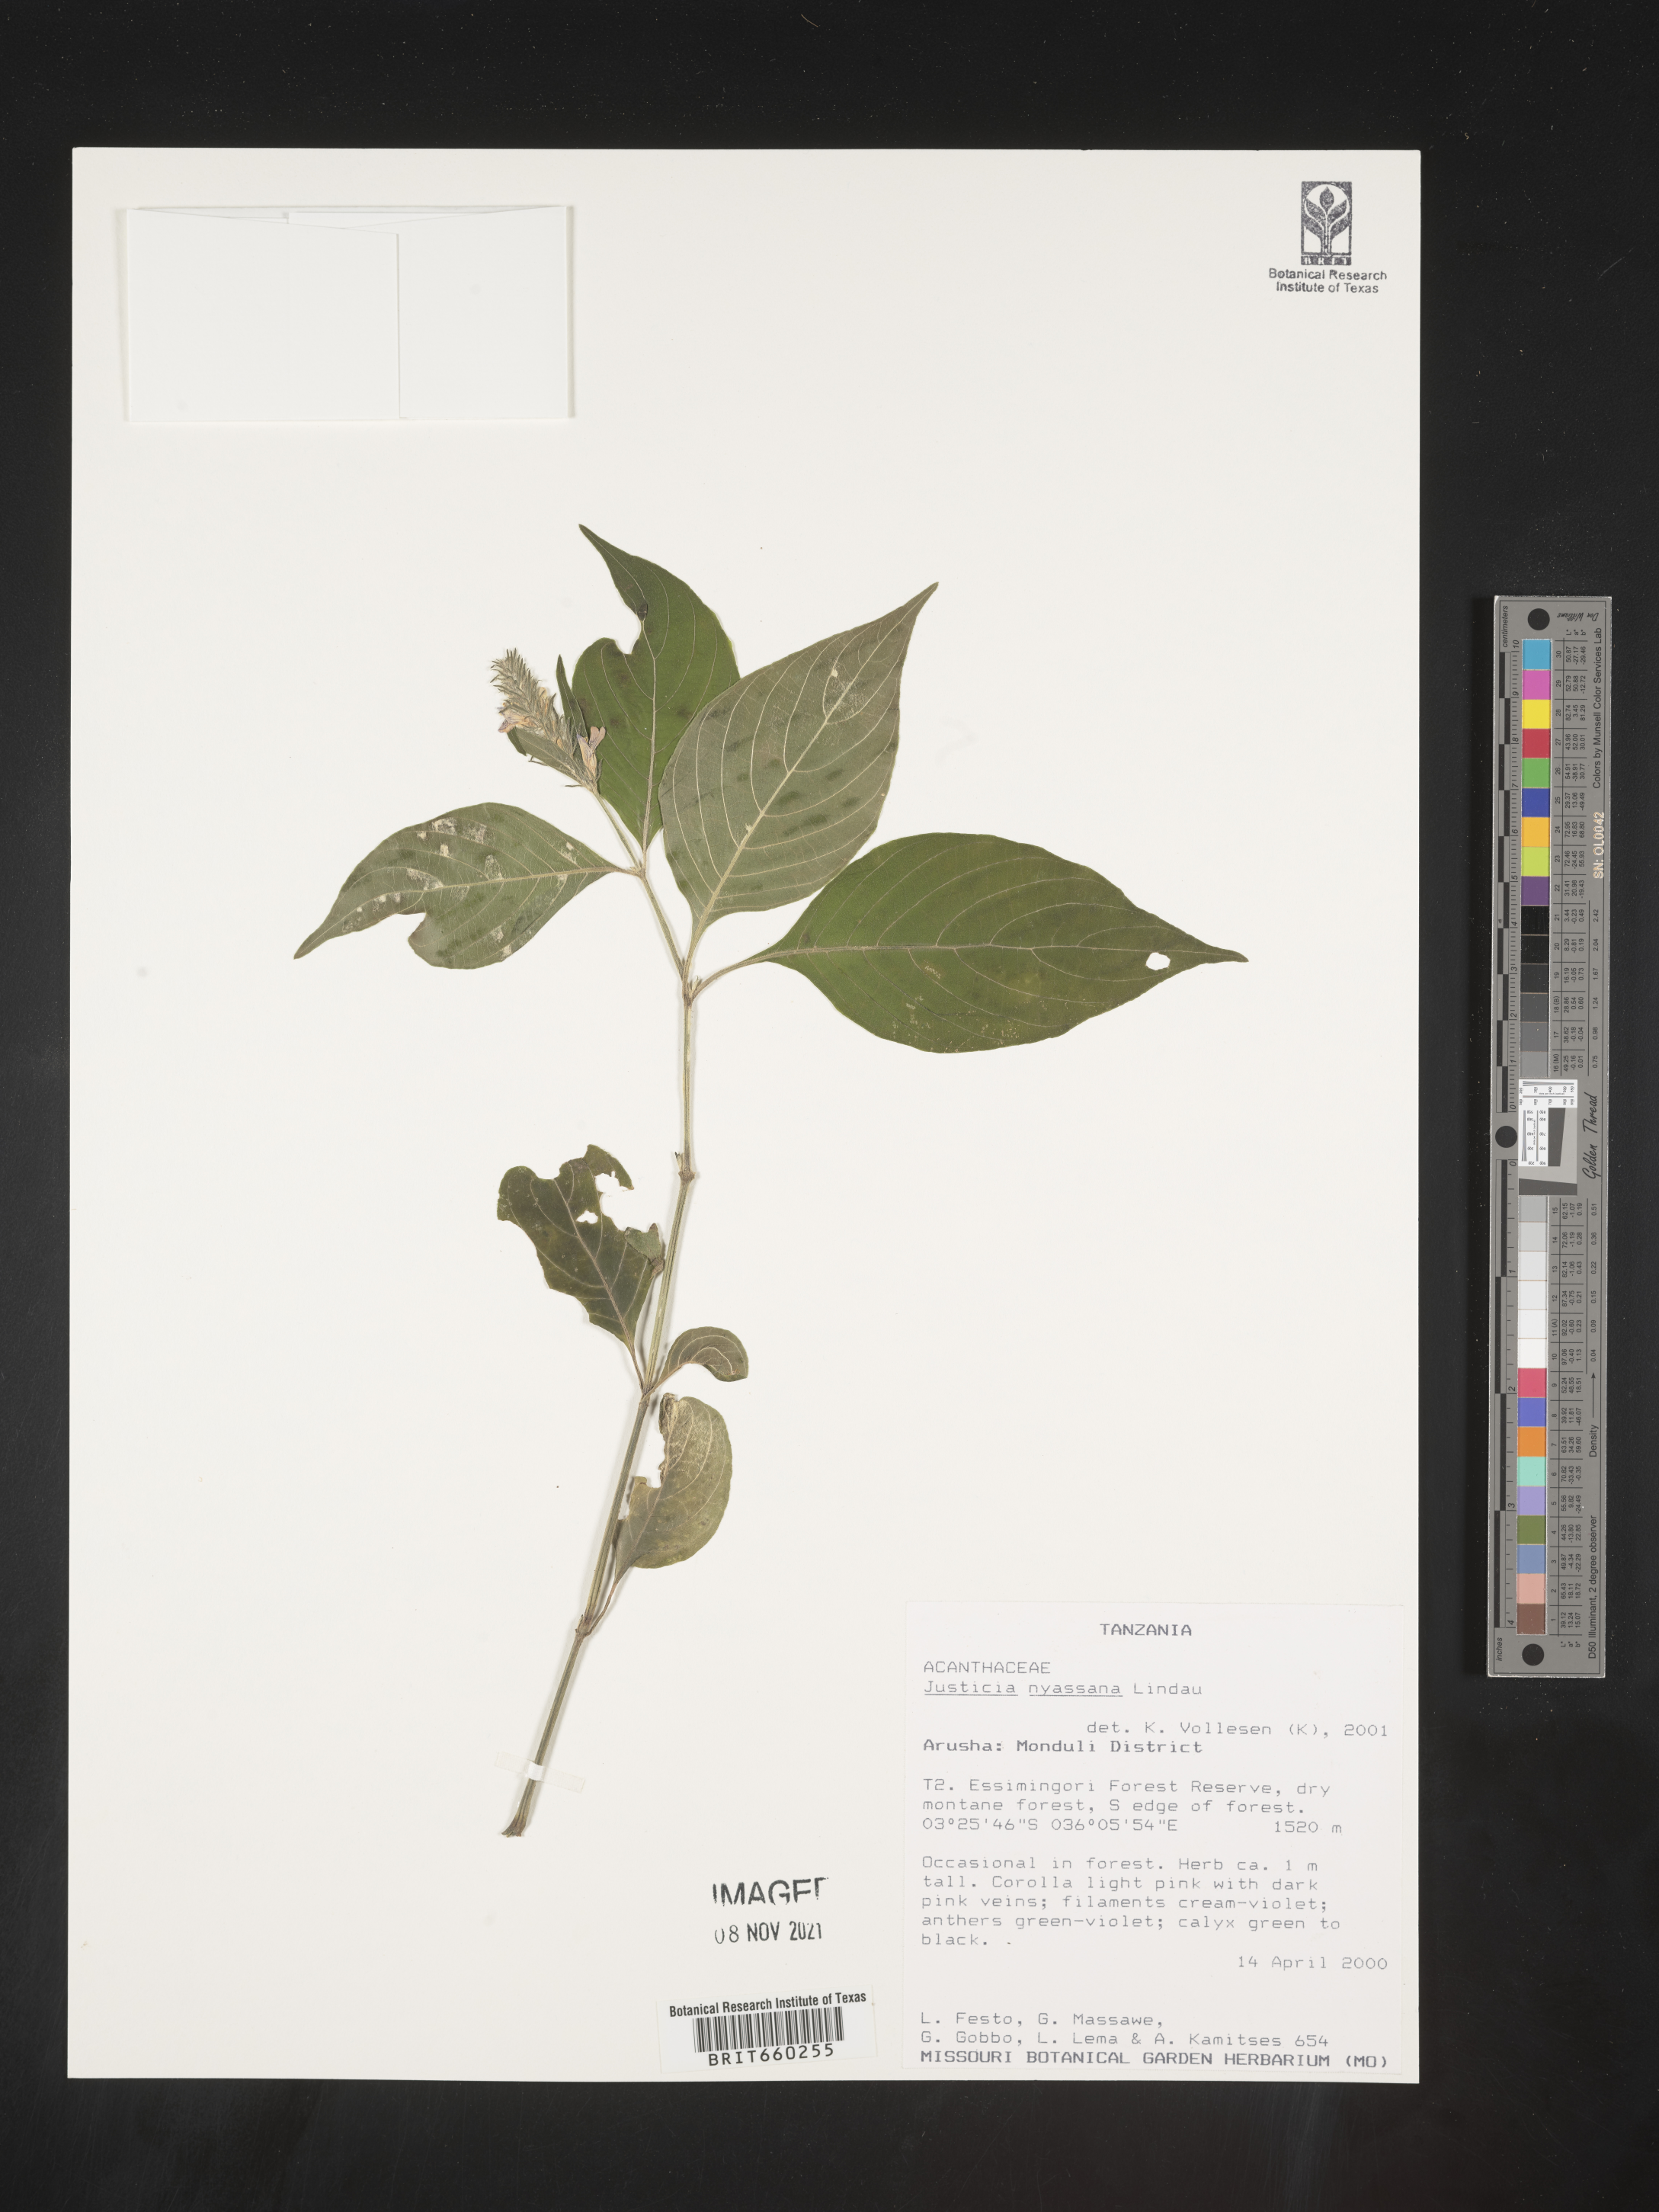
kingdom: Plantae
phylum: Tracheophyta
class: Magnoliopsida
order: Lamiales
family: Acanthaceae
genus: Justicia
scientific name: Justicia nyassana
